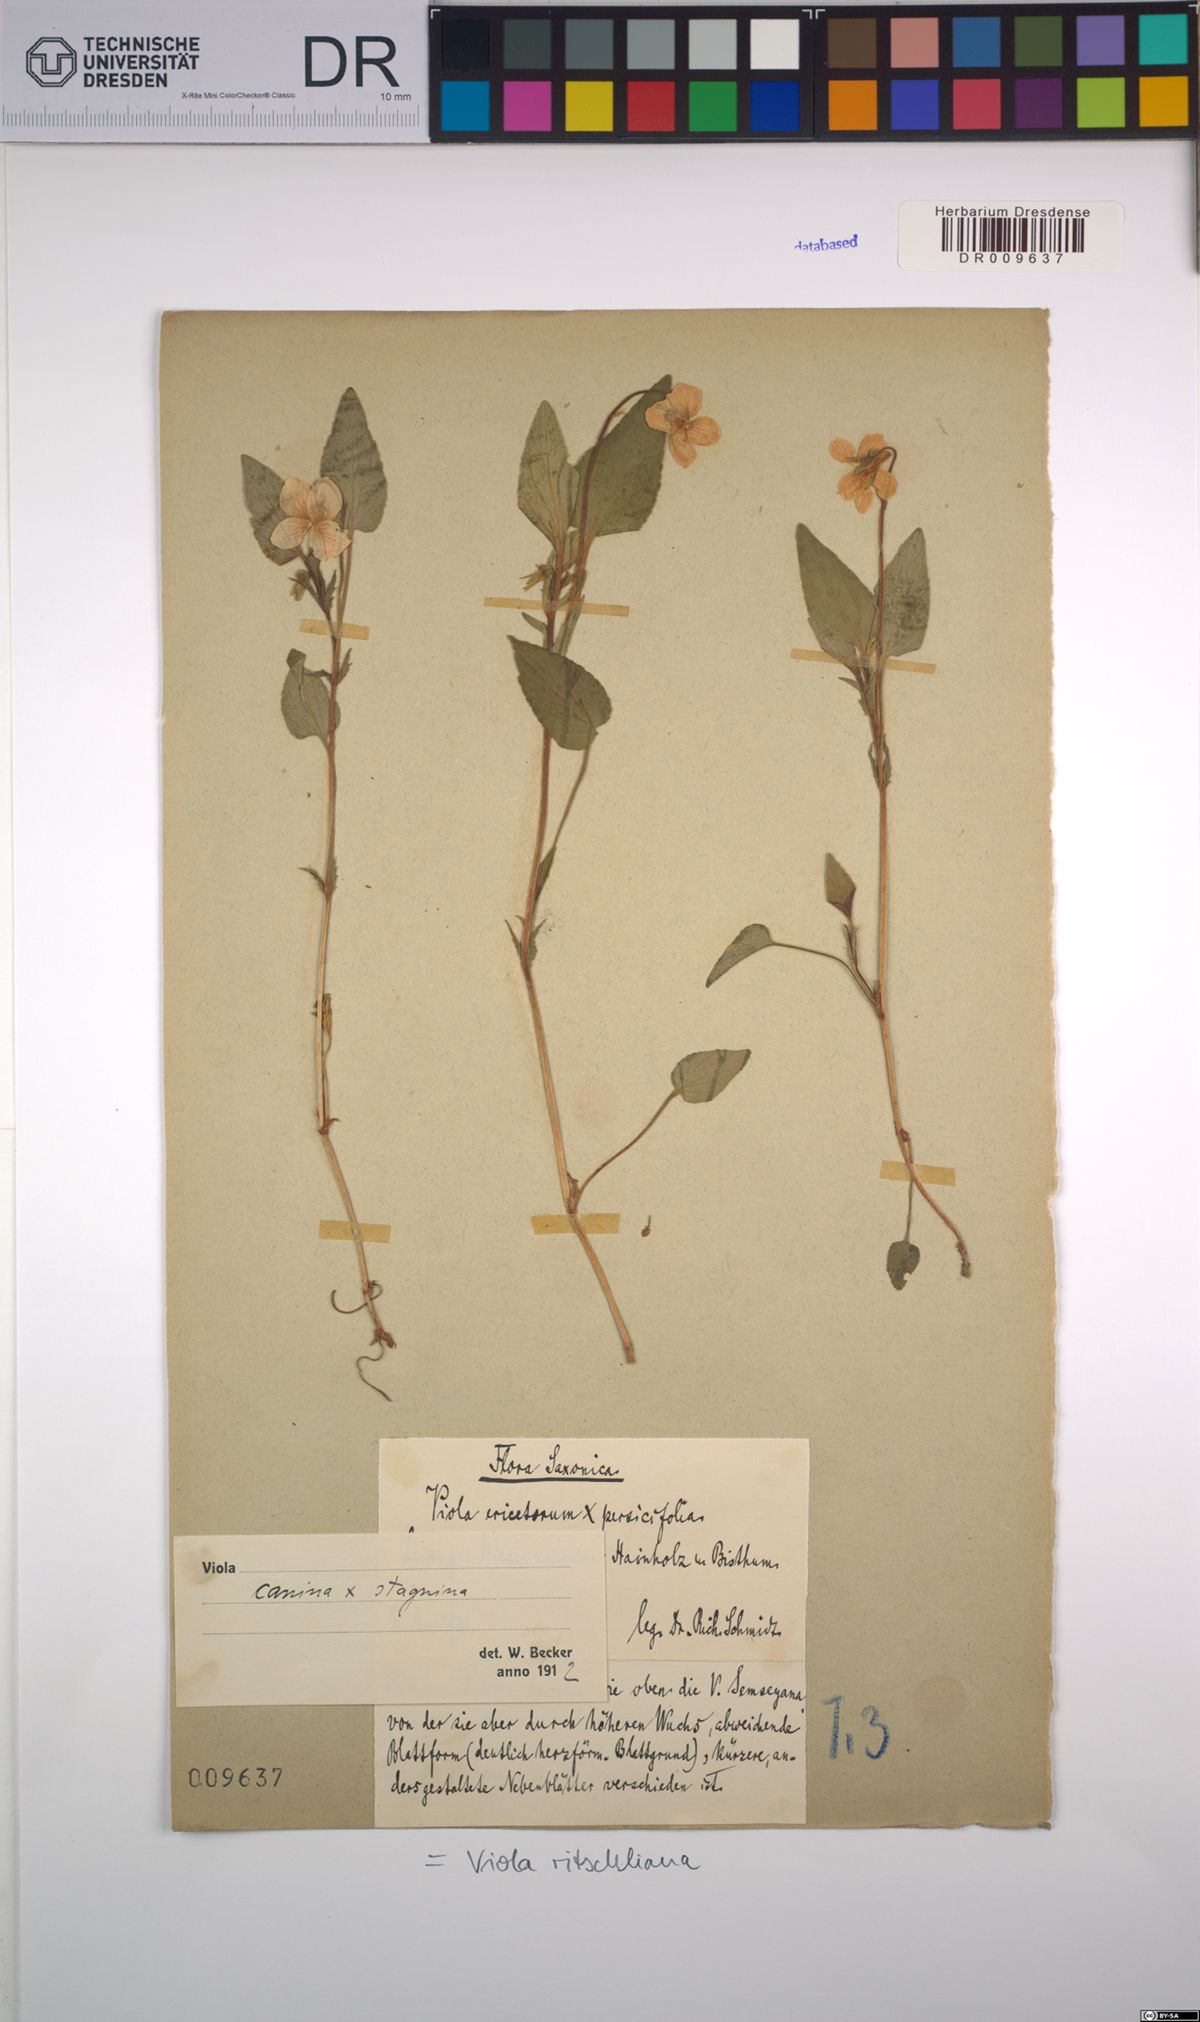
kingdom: Plantae
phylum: Tracheophyta
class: Magnoliopsida
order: Malpighiales
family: Violaceae
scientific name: Violaceae
